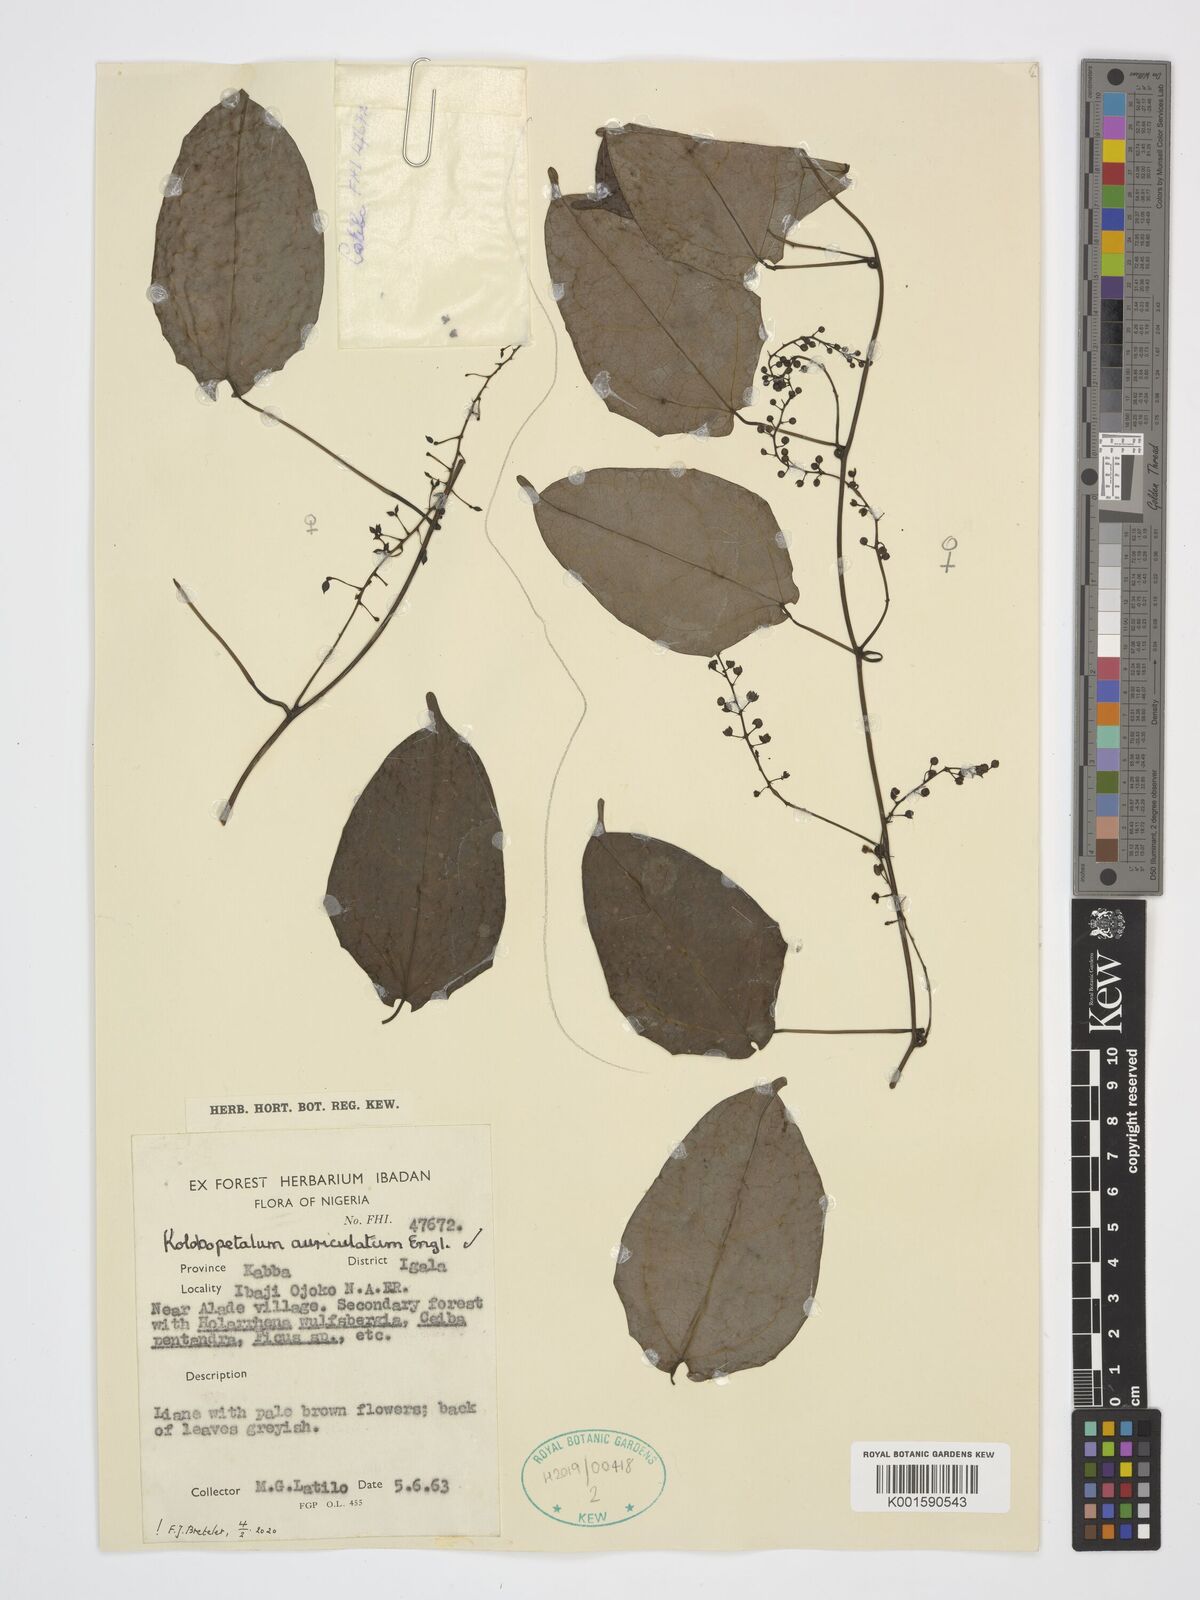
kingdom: Plantae
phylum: Tracheophyta
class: Magnoliopsida
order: Ranunculales
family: Menispermaceae
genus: Kolobopetalum
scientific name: Kolobopetalum auriculatum
